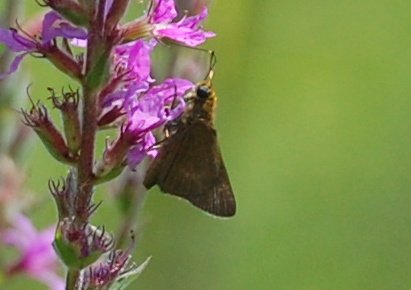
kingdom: Animalia
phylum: Arthropoda
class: Insecta
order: Lepidoptera
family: Hesperiidae
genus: Polites
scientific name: Polites themistocles
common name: Tawny-edged Skipper
